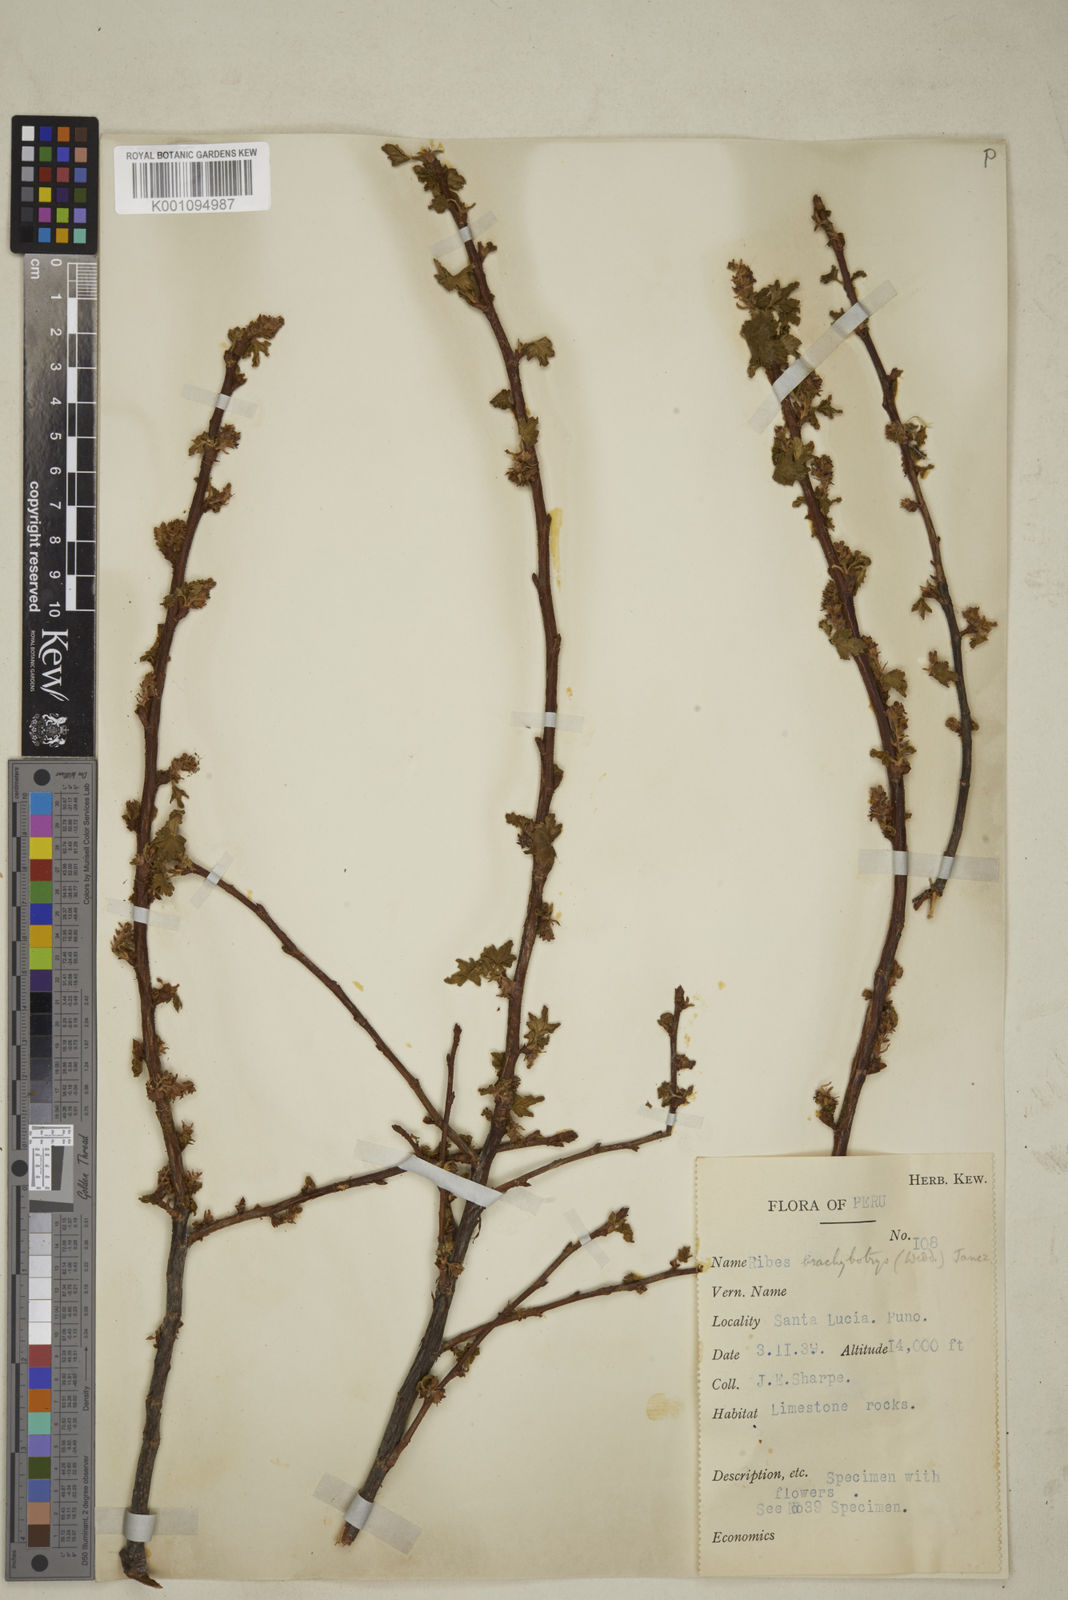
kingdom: Plantae
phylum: Tracheophyta
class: Magnoliopsida
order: Saxifragales
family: Grossulariaceae
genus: Ribes
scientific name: Ribes brachybotrys
